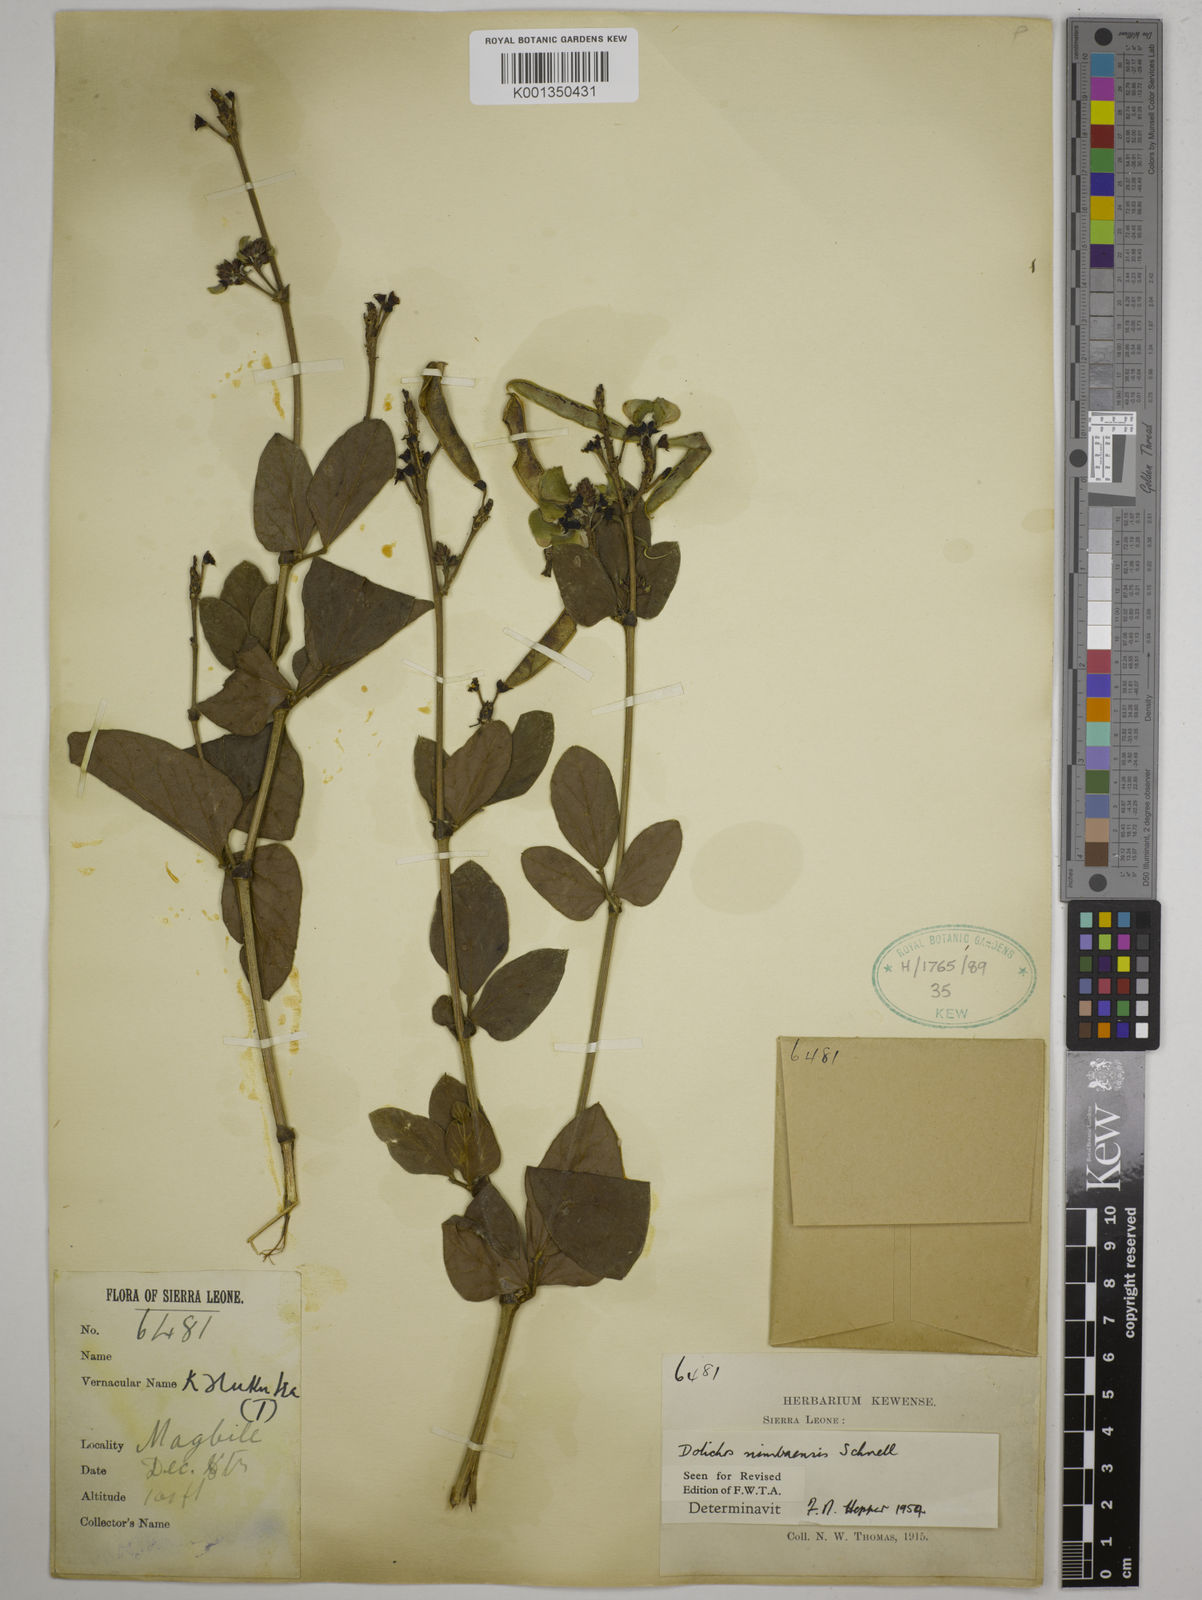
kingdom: Plantae
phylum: Tracheophyta
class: Magnoliopsida
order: Fabales
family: Fabaceae
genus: Dolichos
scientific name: Dolichos dinklagei
